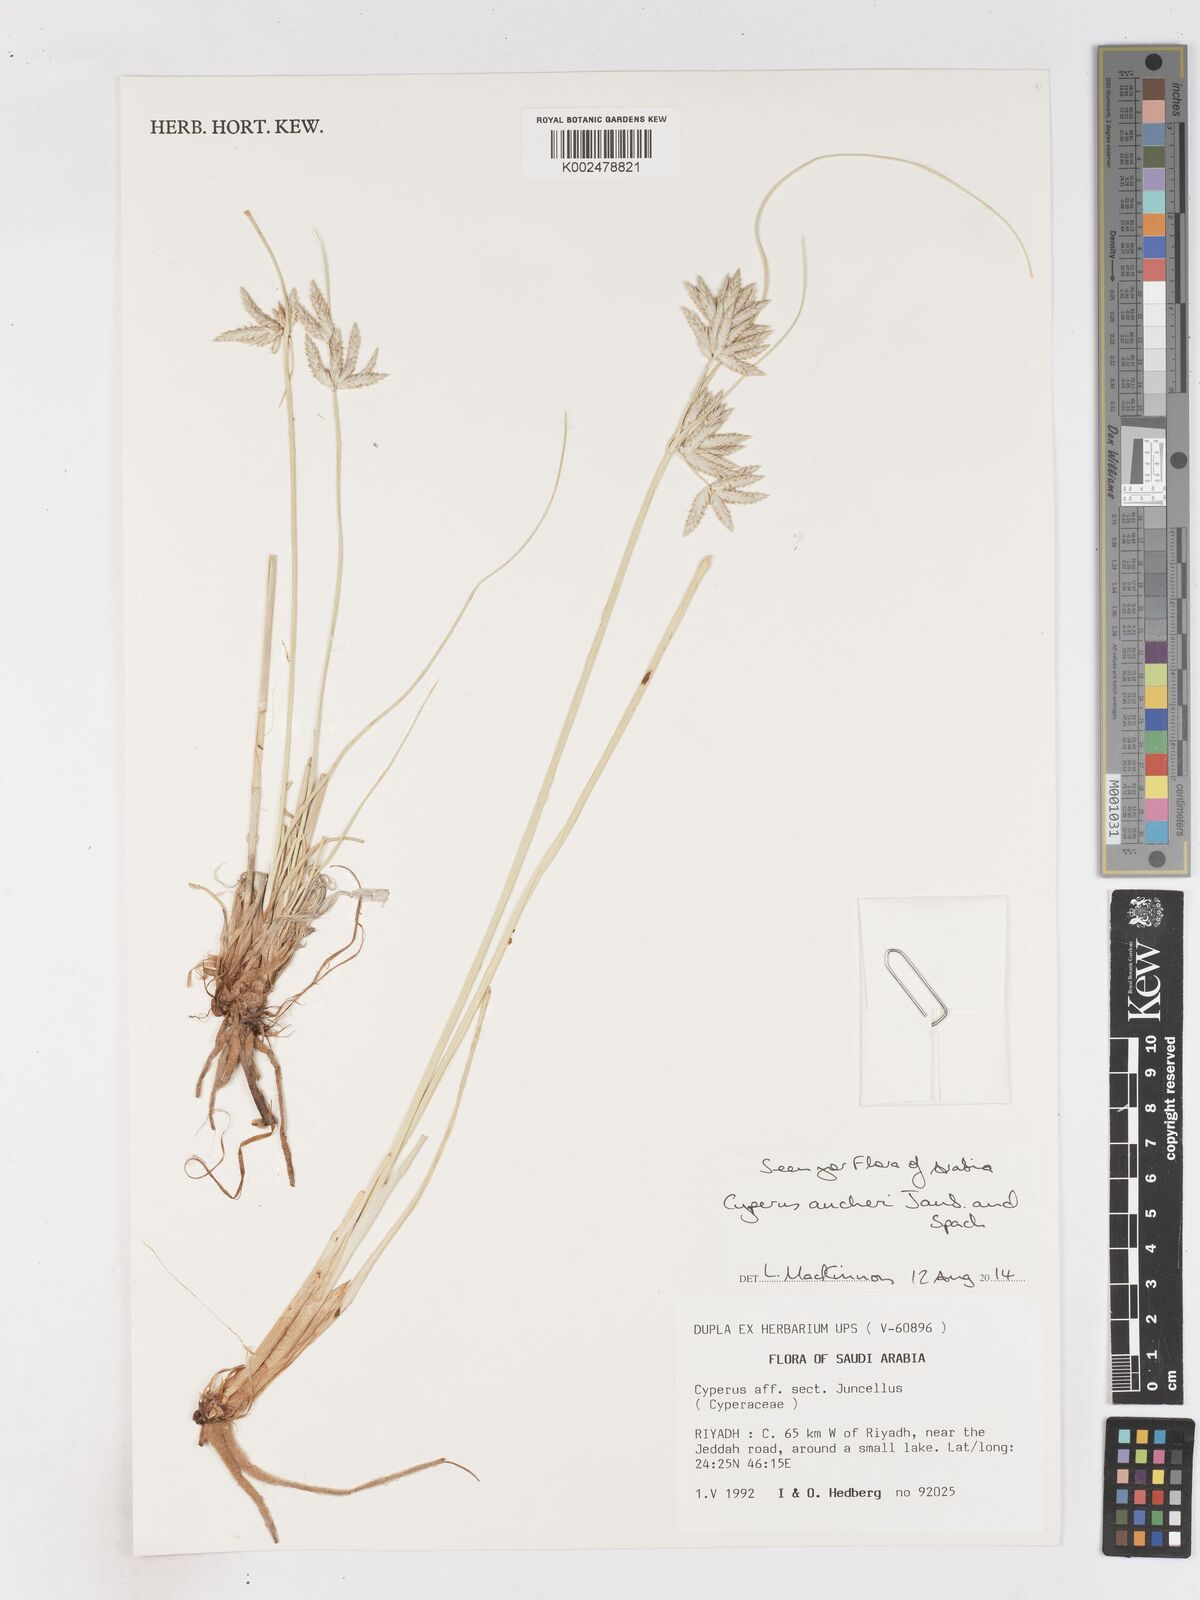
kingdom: Plantae
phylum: Tracheophyta
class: Liliopsida
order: Poales
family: Cyperaceae
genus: Cyperus
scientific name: Cyperus aucheri
